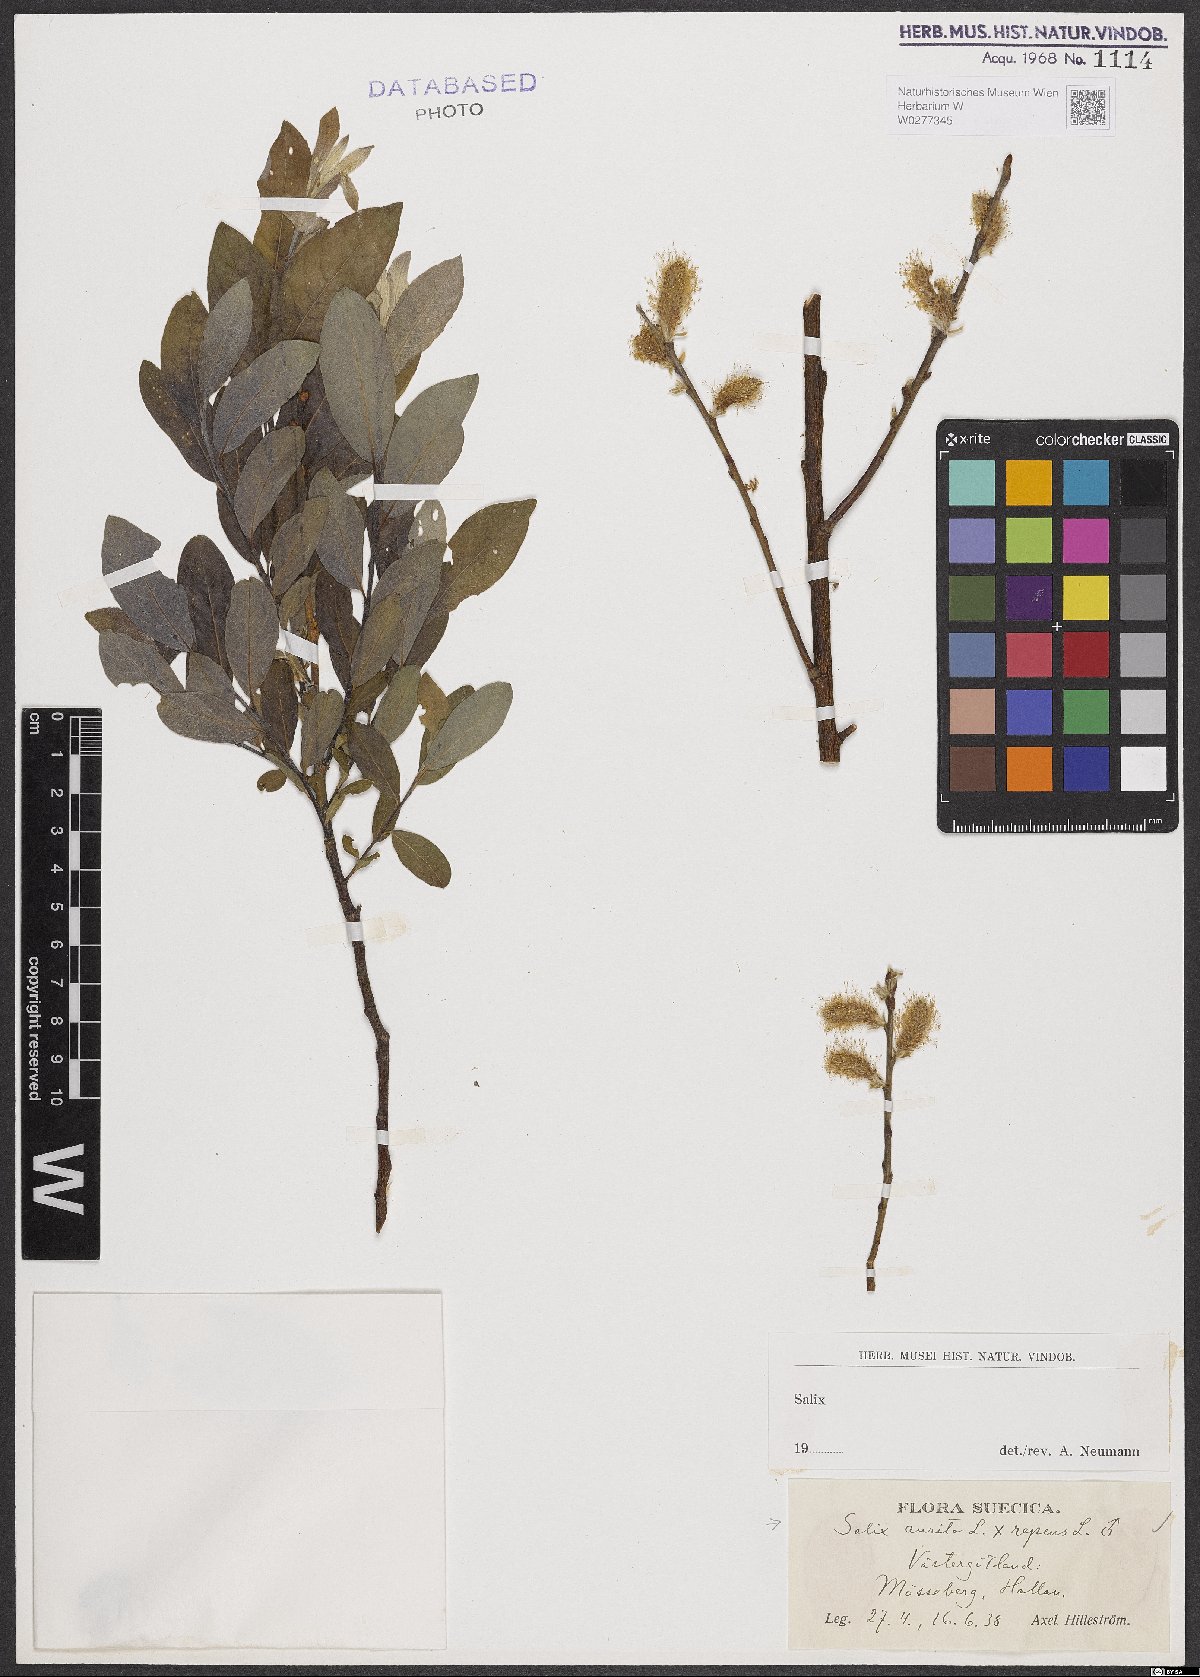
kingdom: Plantae
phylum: Tracheophyta
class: Magnoliopsida
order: Malpighiales
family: Salicaceae
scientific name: Salicaceae
